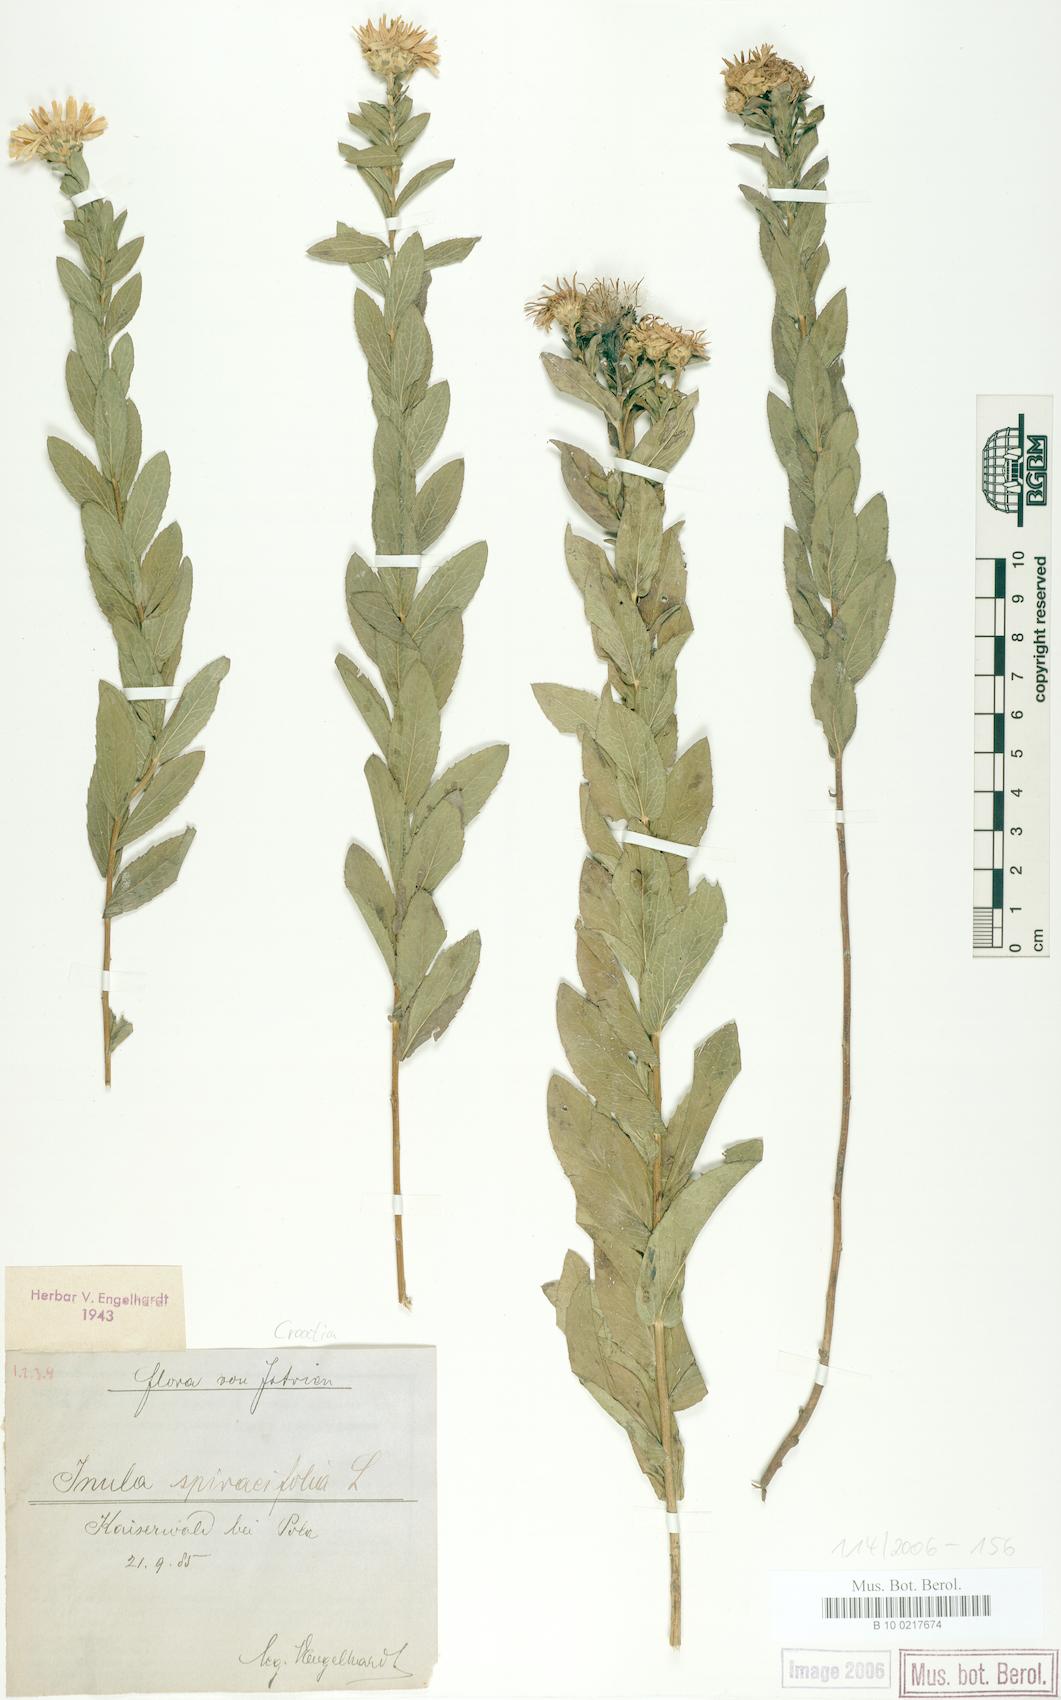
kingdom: Plantae
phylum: Tracheophyta
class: Magnoliopsida
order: Asterales
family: Asteraceae
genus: Pentanema
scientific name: Pentanema spiraeifolium
